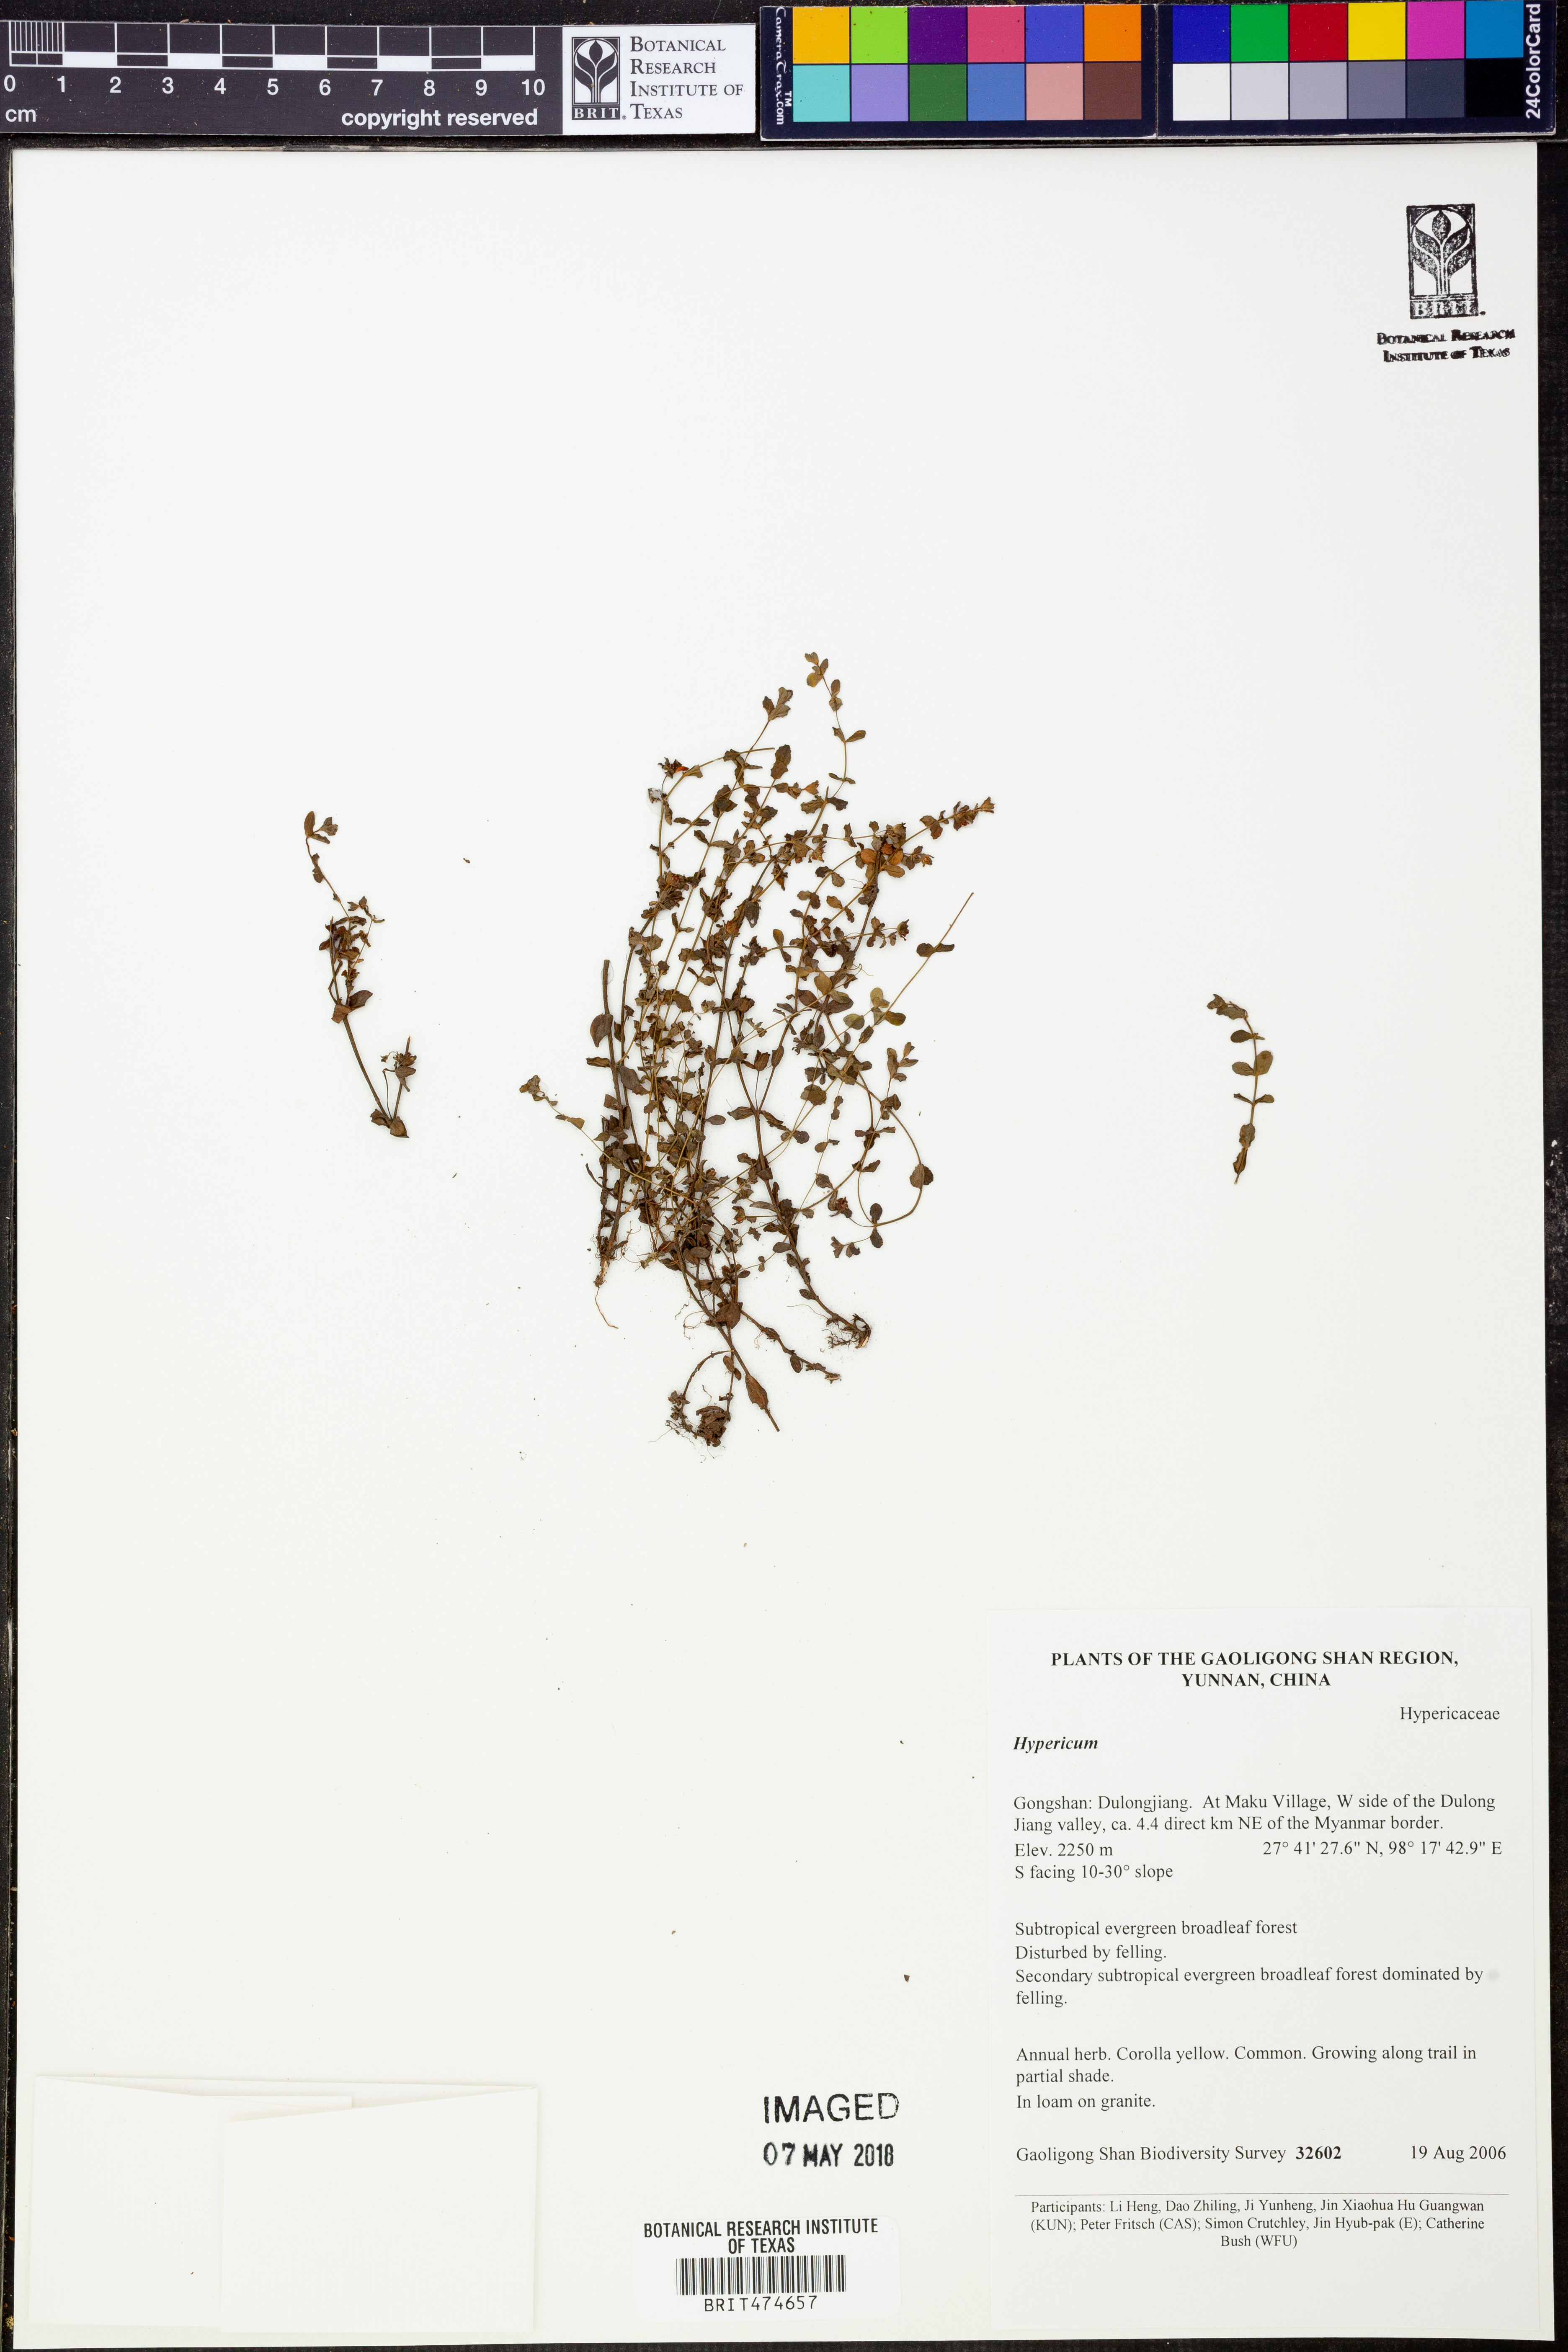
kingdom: Plantae
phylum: Tracheophyta
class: Magnoliopsida
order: Malpighiales
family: Hypericaceae
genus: Hypericum
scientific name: Hypericum
